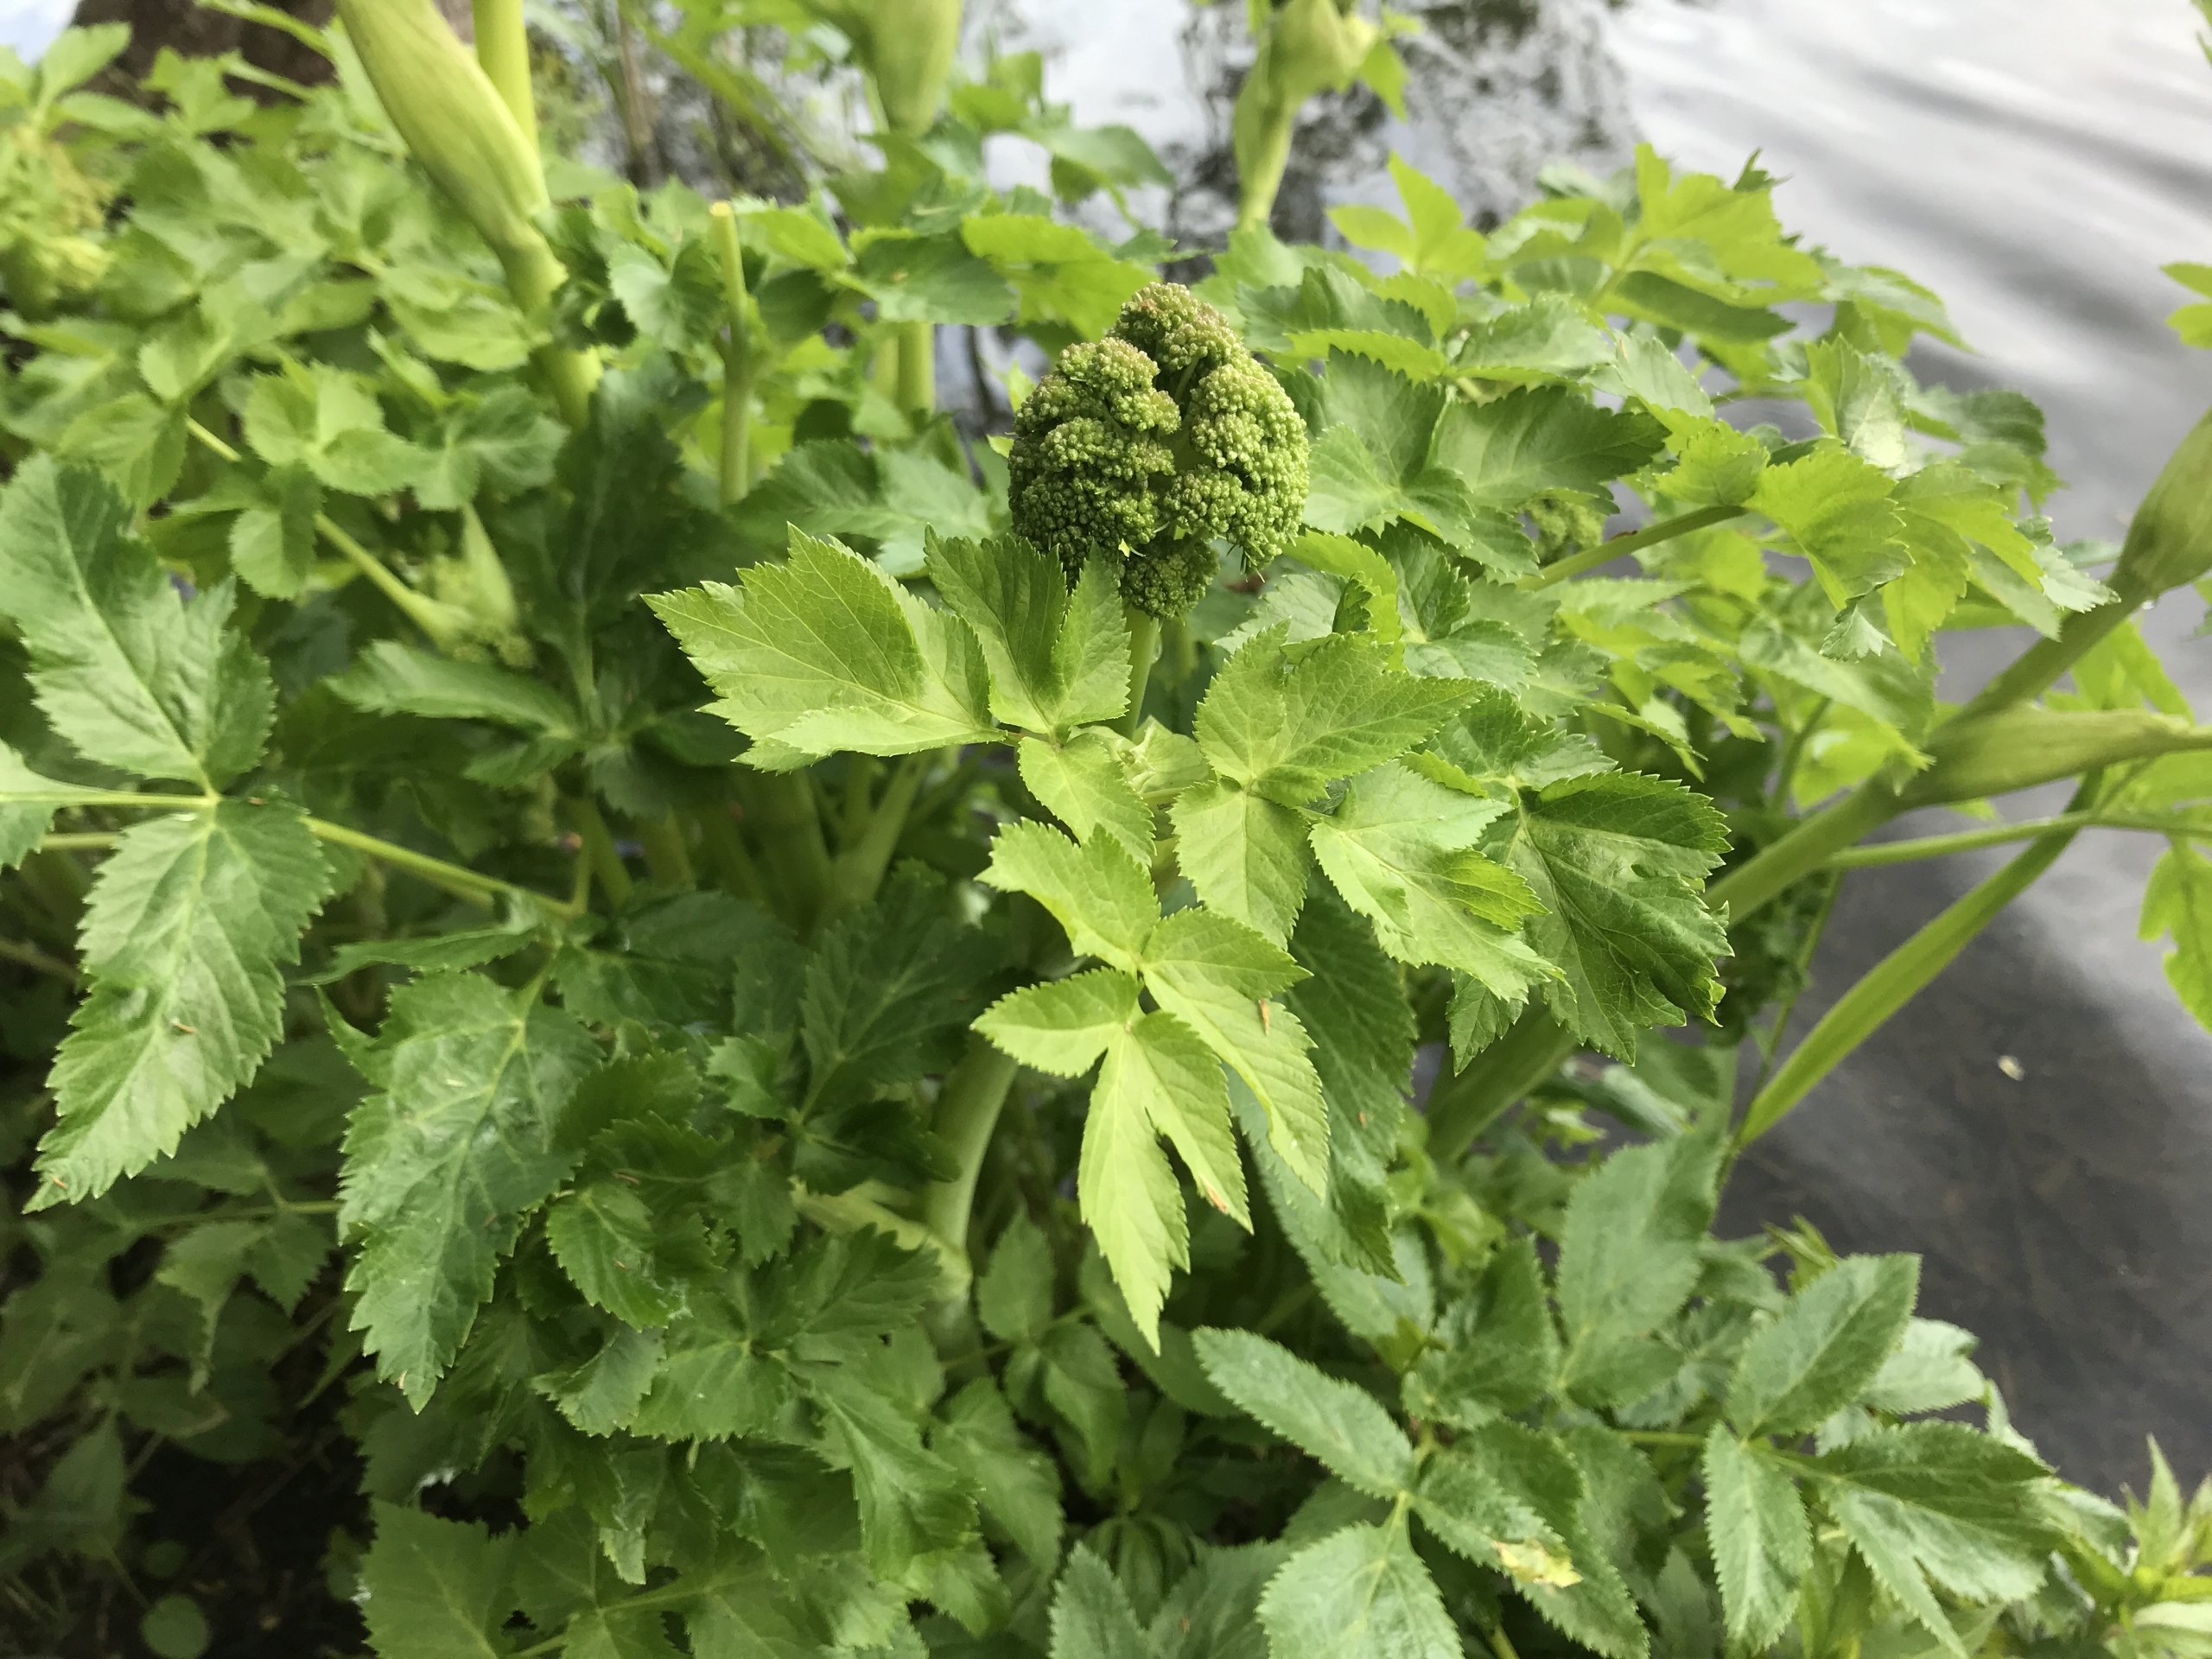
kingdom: Plantae
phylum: Tracheophyta
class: Magnoliopsida
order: Apiales
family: Apiaceae
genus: Angelica
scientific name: Angelica archangelica
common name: Kvan
